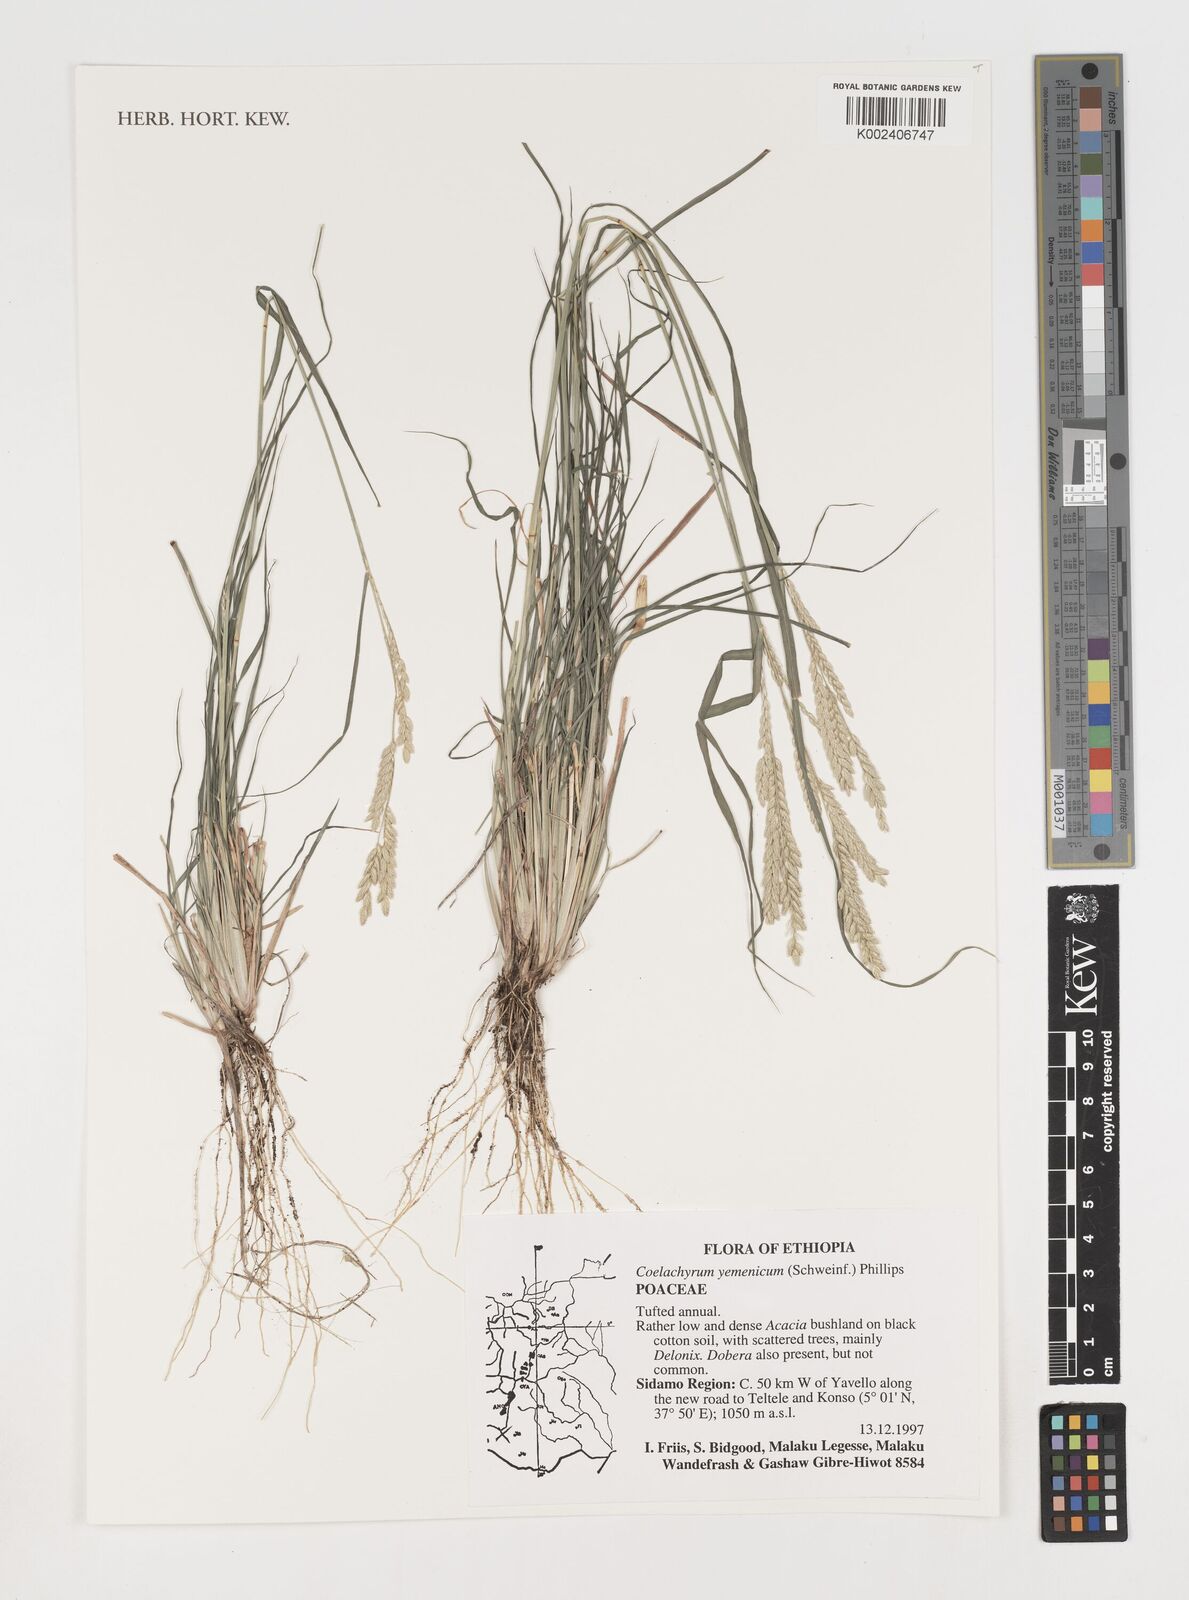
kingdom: Plantae
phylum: Tracheophyta
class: Liliopsida
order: Poales
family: Poaceae
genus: Disakisperma
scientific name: Disakisperma yemenicum
